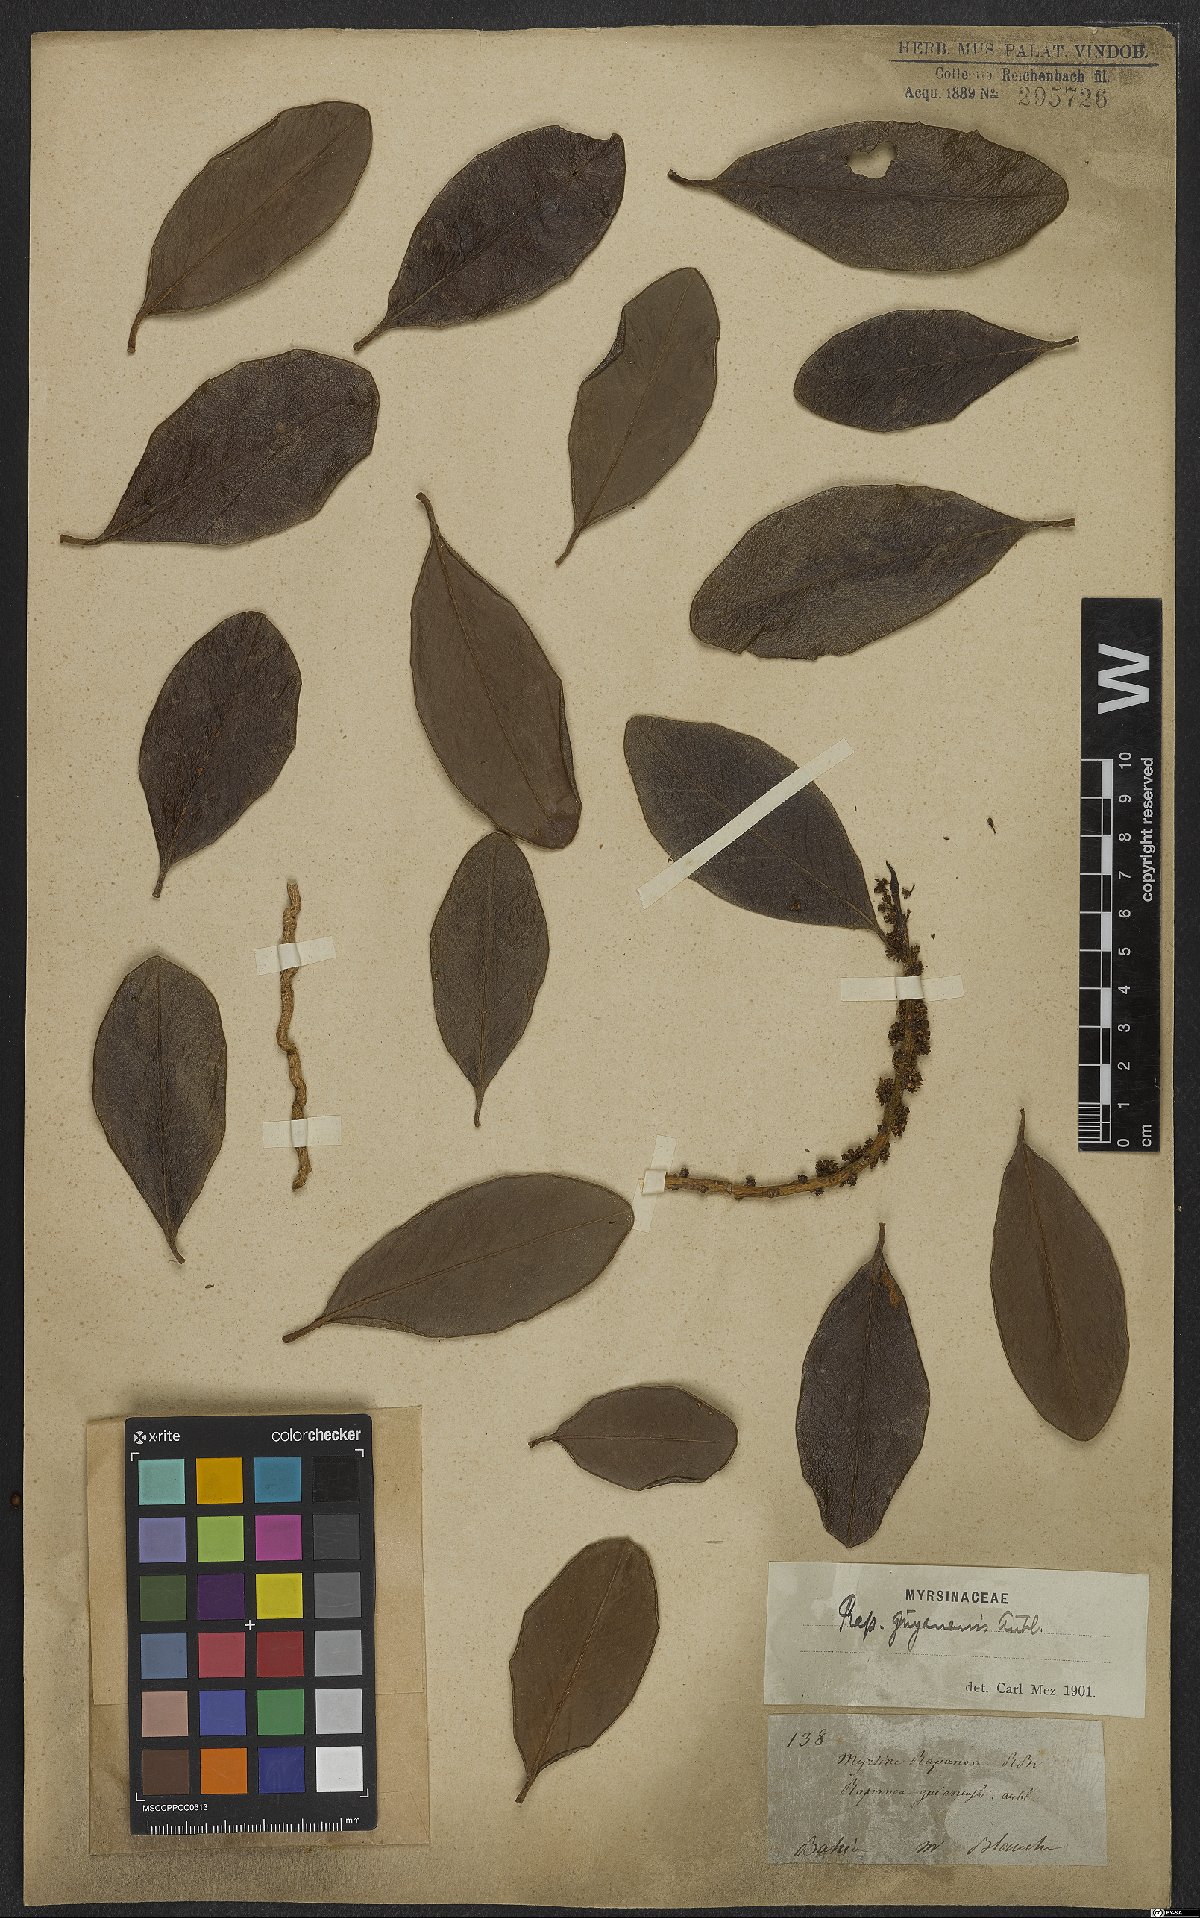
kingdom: Plantae
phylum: Tracheophyta
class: Magnoliopsida
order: Ericales
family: Primulaceae
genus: Myrsine
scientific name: Myrsine guianensis
